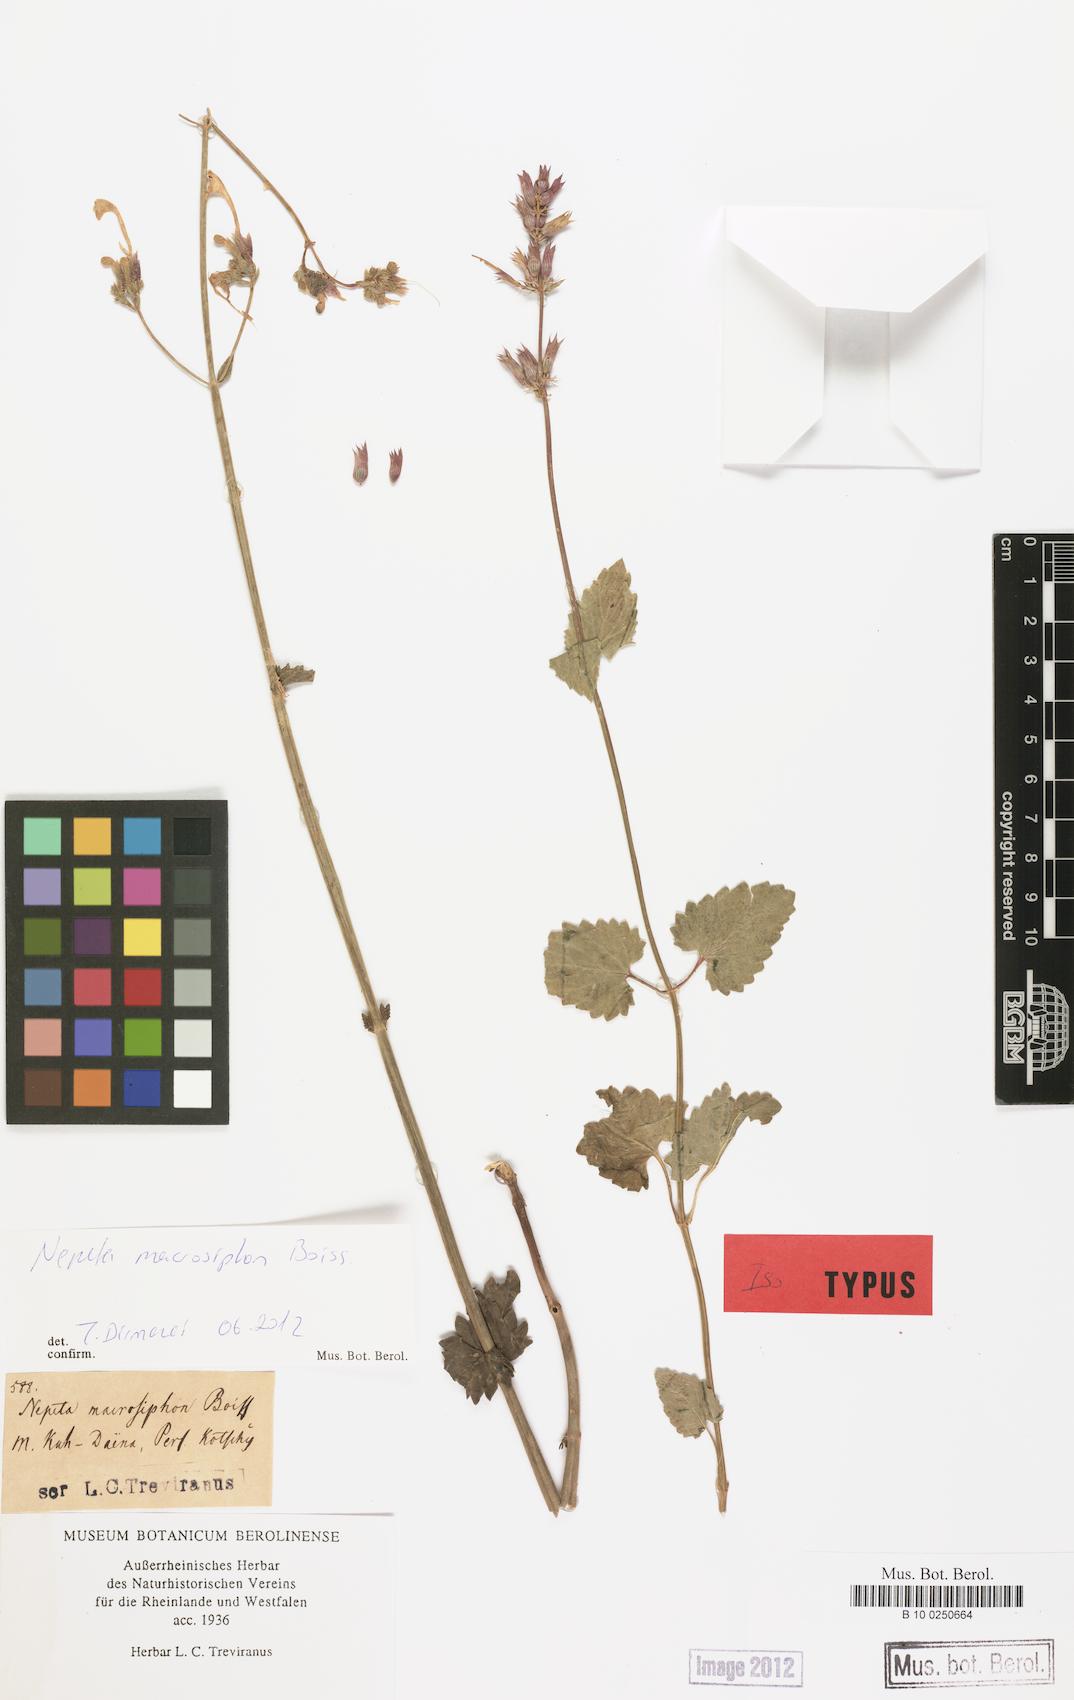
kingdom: Plantae
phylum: Tracheophyta
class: Magnoliopsida
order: Lamiales
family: Lamiaceae
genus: Nepeta
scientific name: Nepeta macrosiphon
